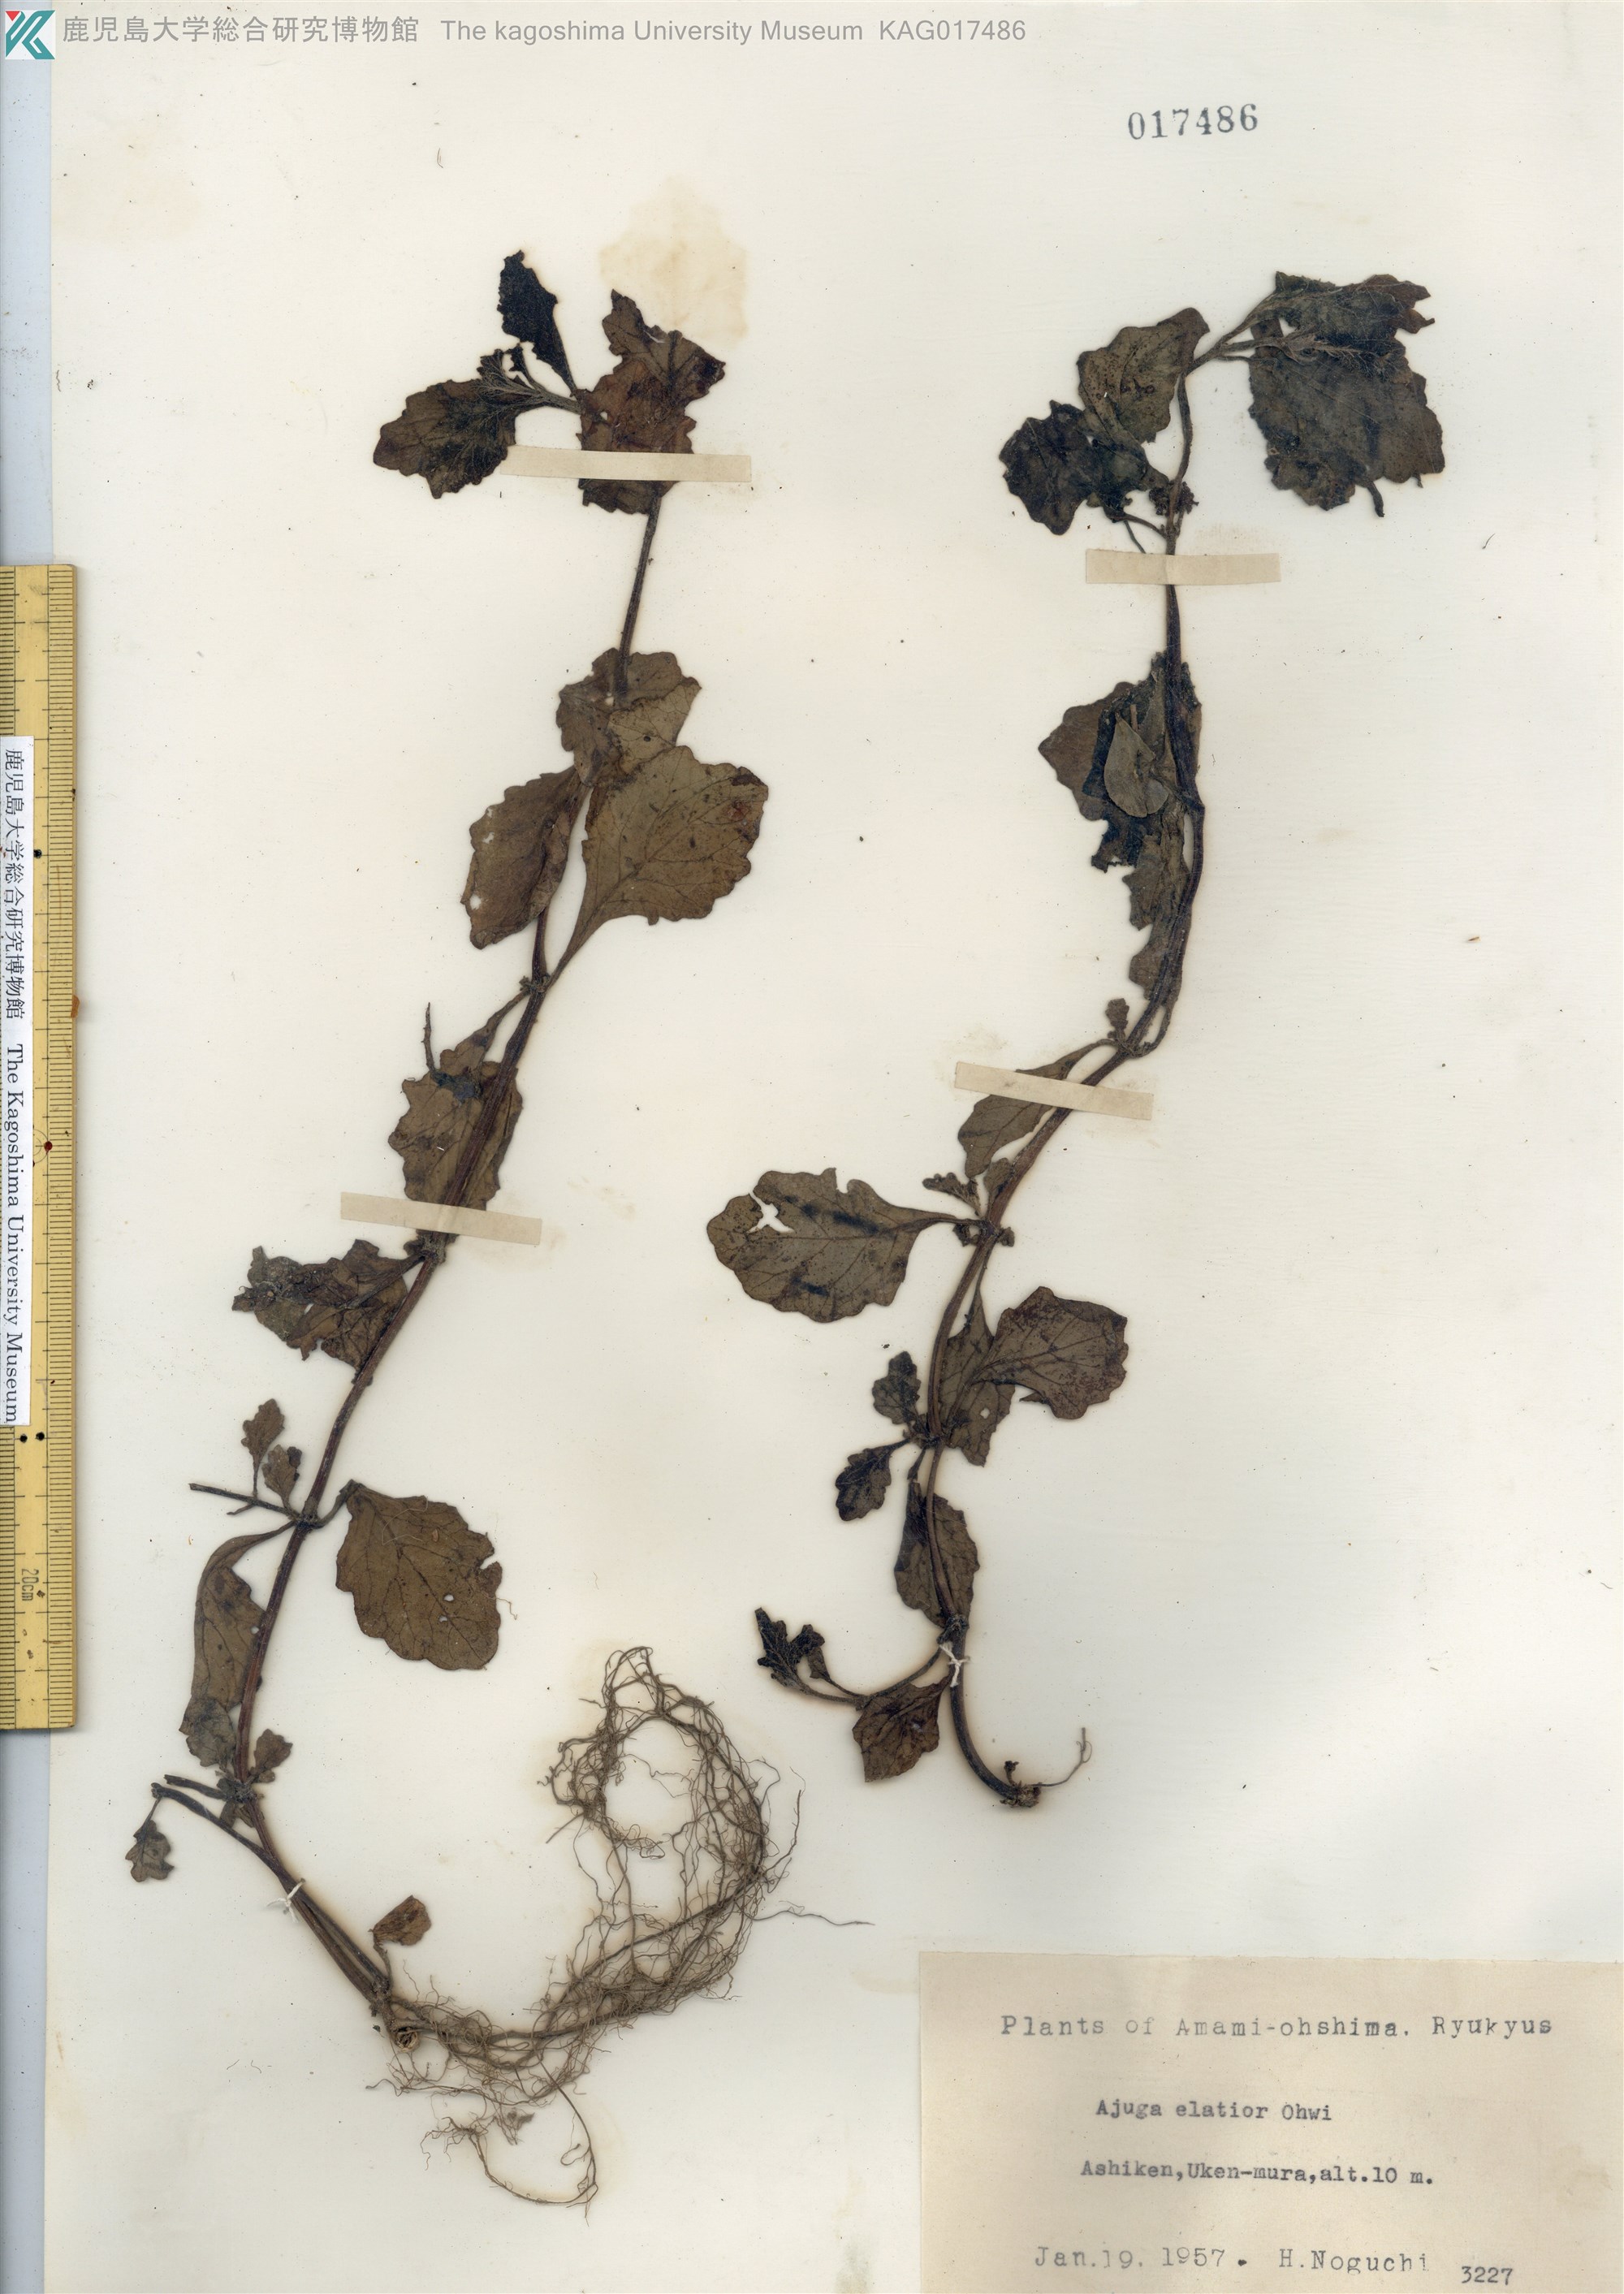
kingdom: Plantae
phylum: Tracheophyta
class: Magnoliopsida
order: Lamiales
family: Lamiaceae
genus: Ajuga
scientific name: Ajuga dictyocarpa
